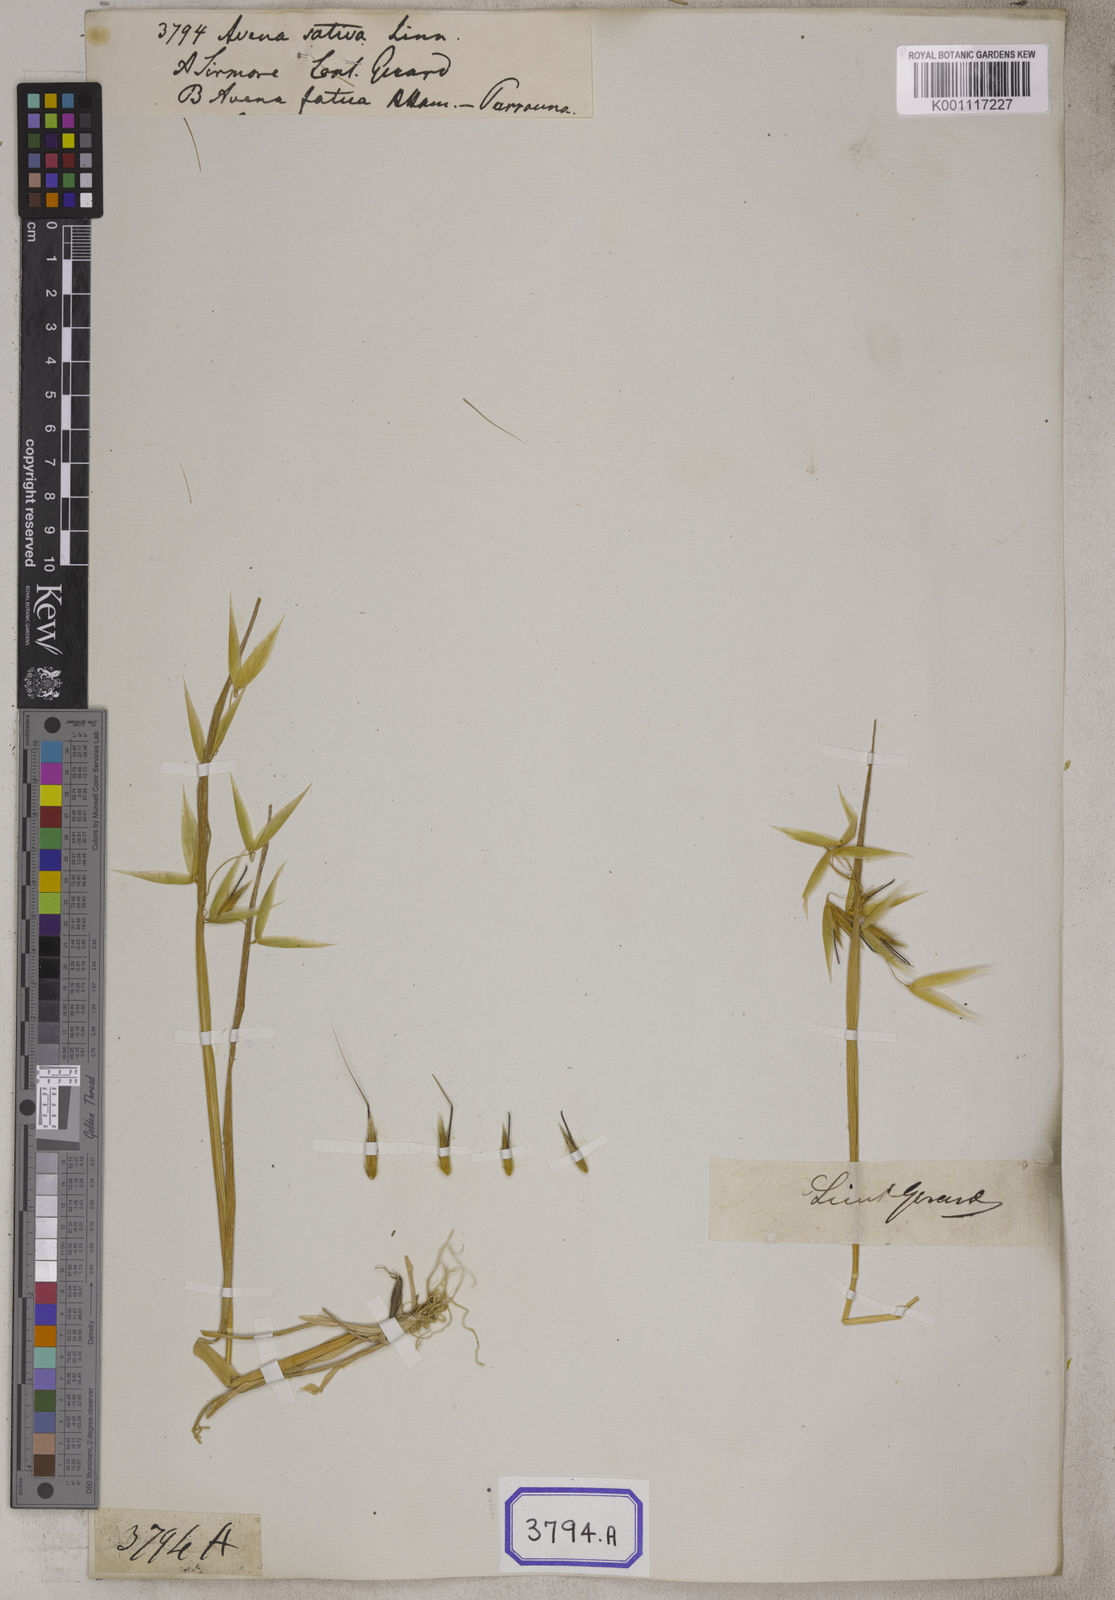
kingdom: Plantae
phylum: Tracheophyta
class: Liliopsida
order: Poales
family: Poaceae
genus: Avena
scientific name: Avena sativa
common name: Oat
